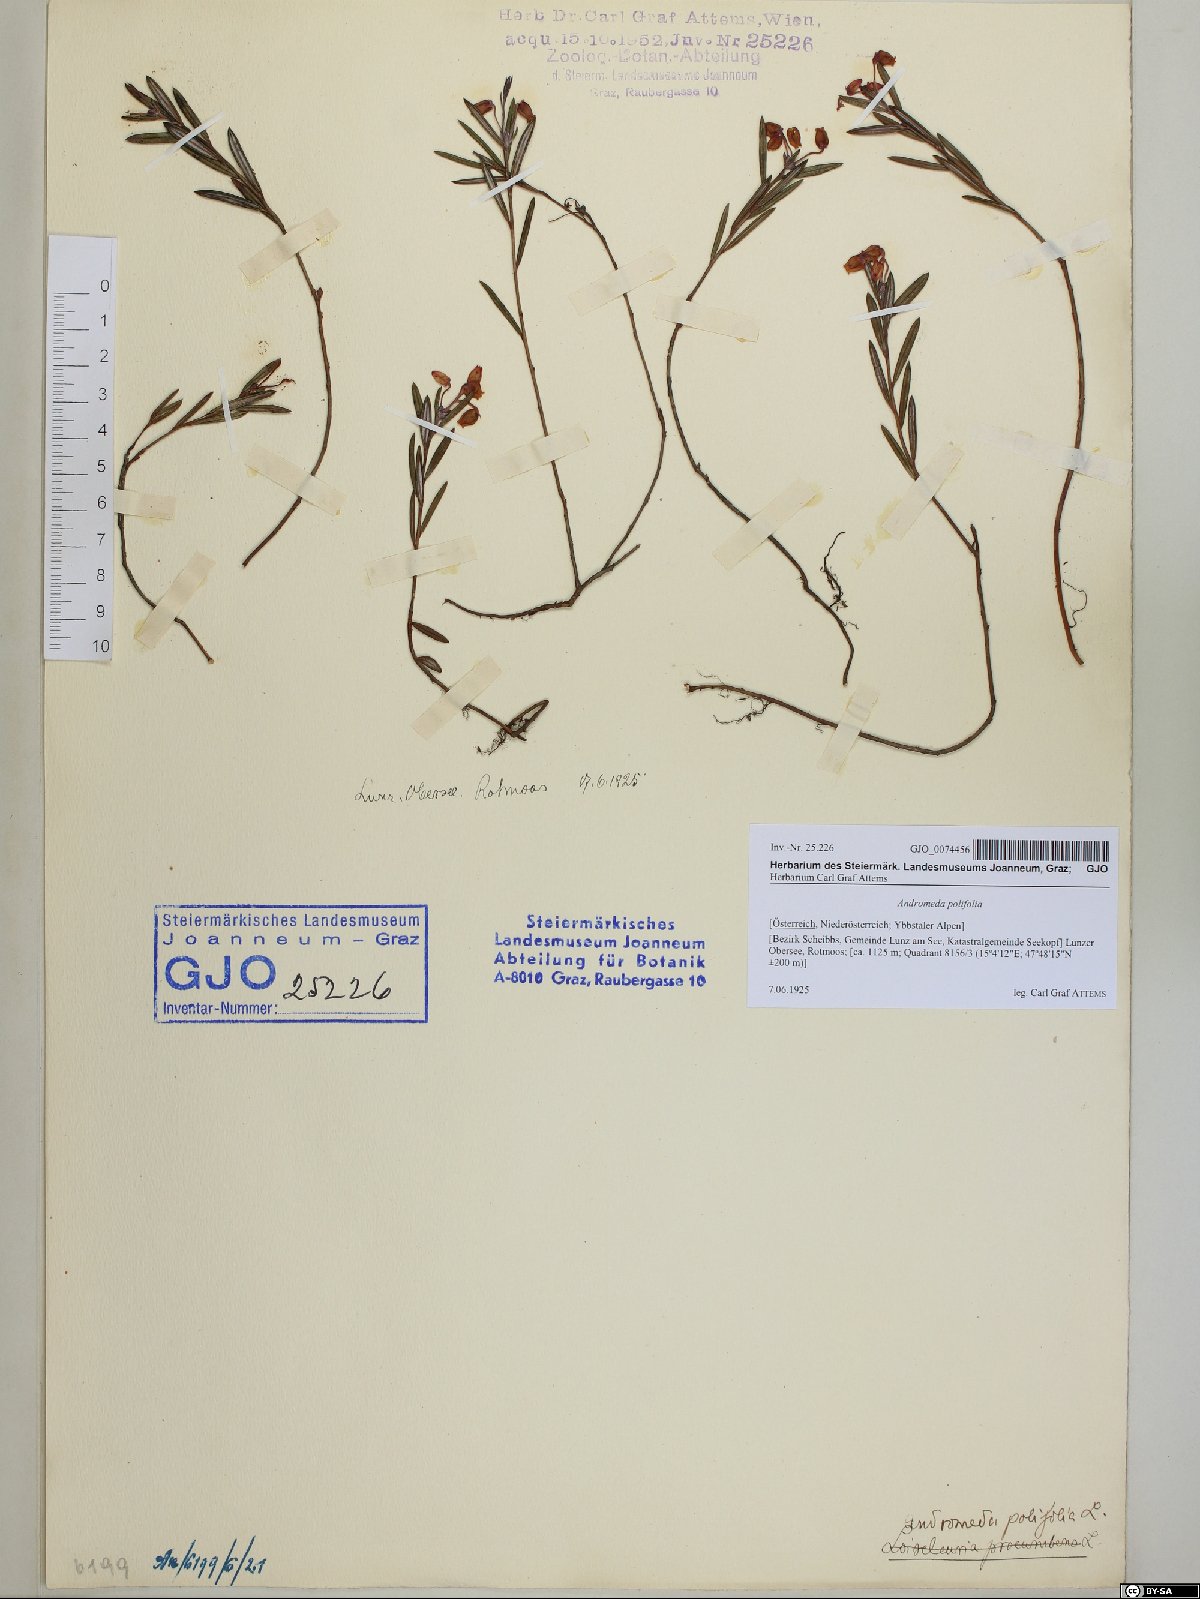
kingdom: Plantae
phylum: Tracheophyta
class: Magnoliopsida
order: Ericales
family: Ericaceae
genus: Andromeda
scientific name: Andromeda polifolia
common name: Bog-rosemary
